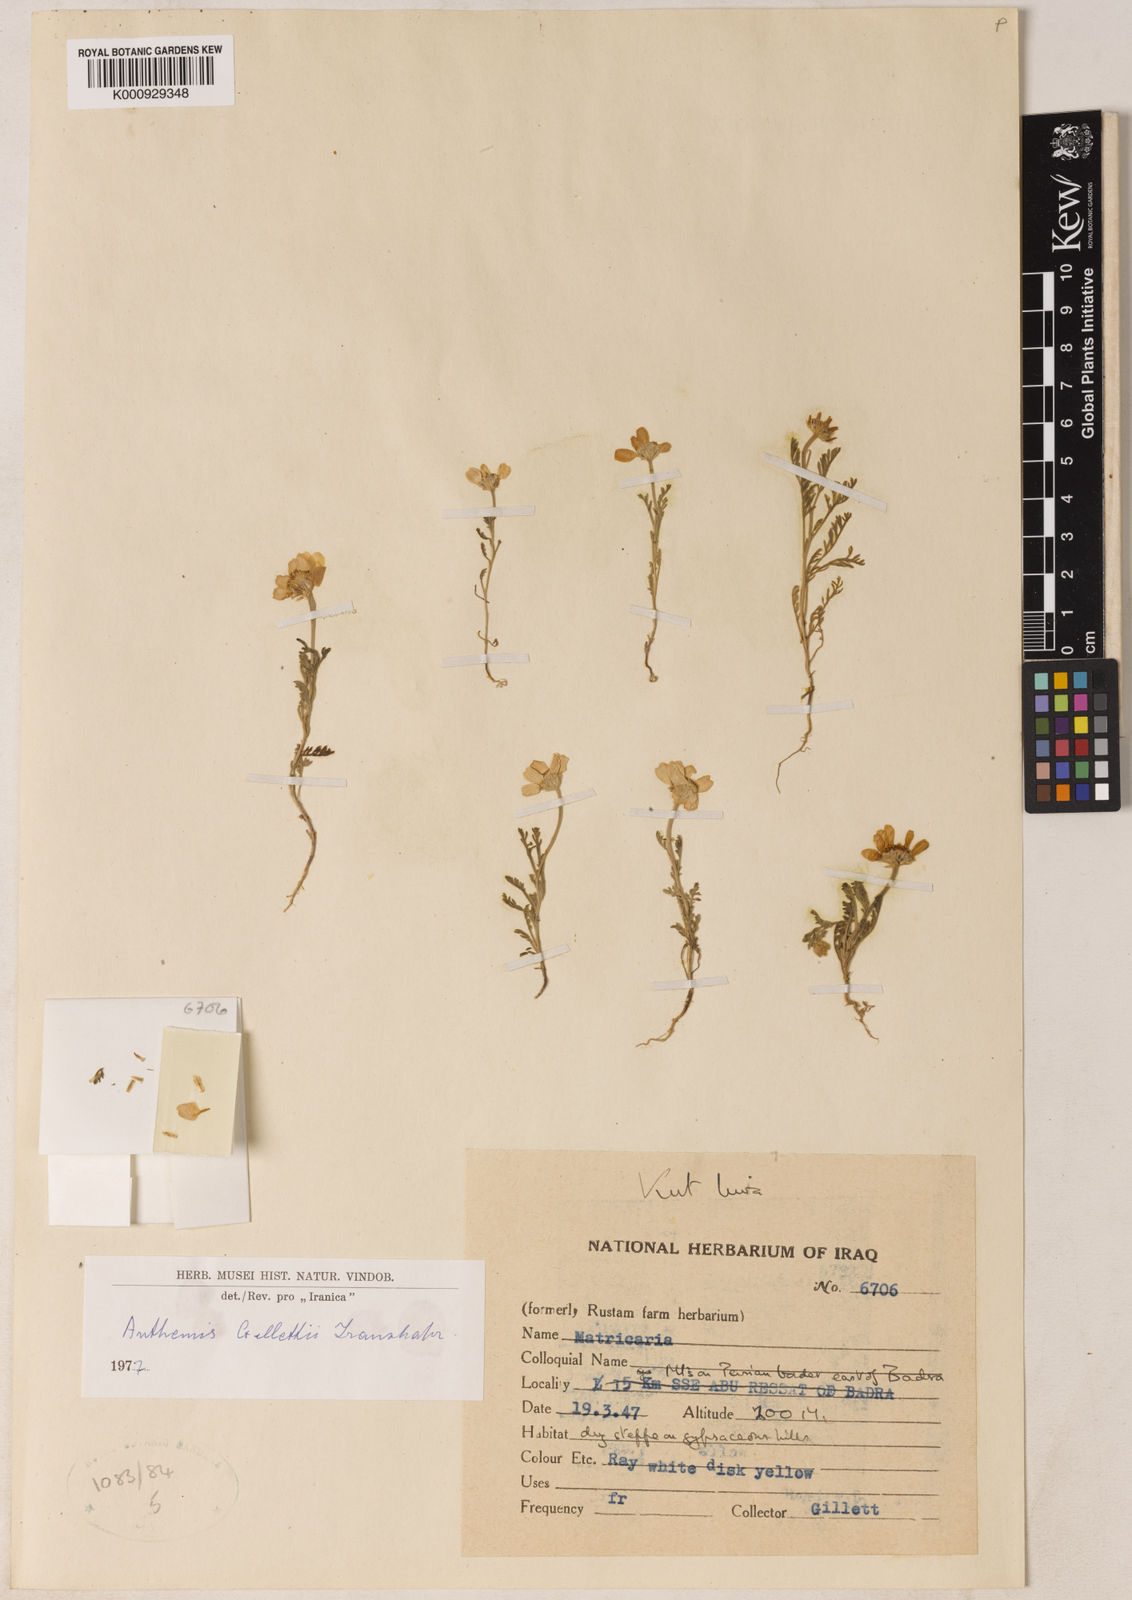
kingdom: Plantae
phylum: Tracheophyta
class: Magnoliopsida
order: Asterales
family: Asteraceae
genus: Anthemis
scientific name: Anthemis gillettii
